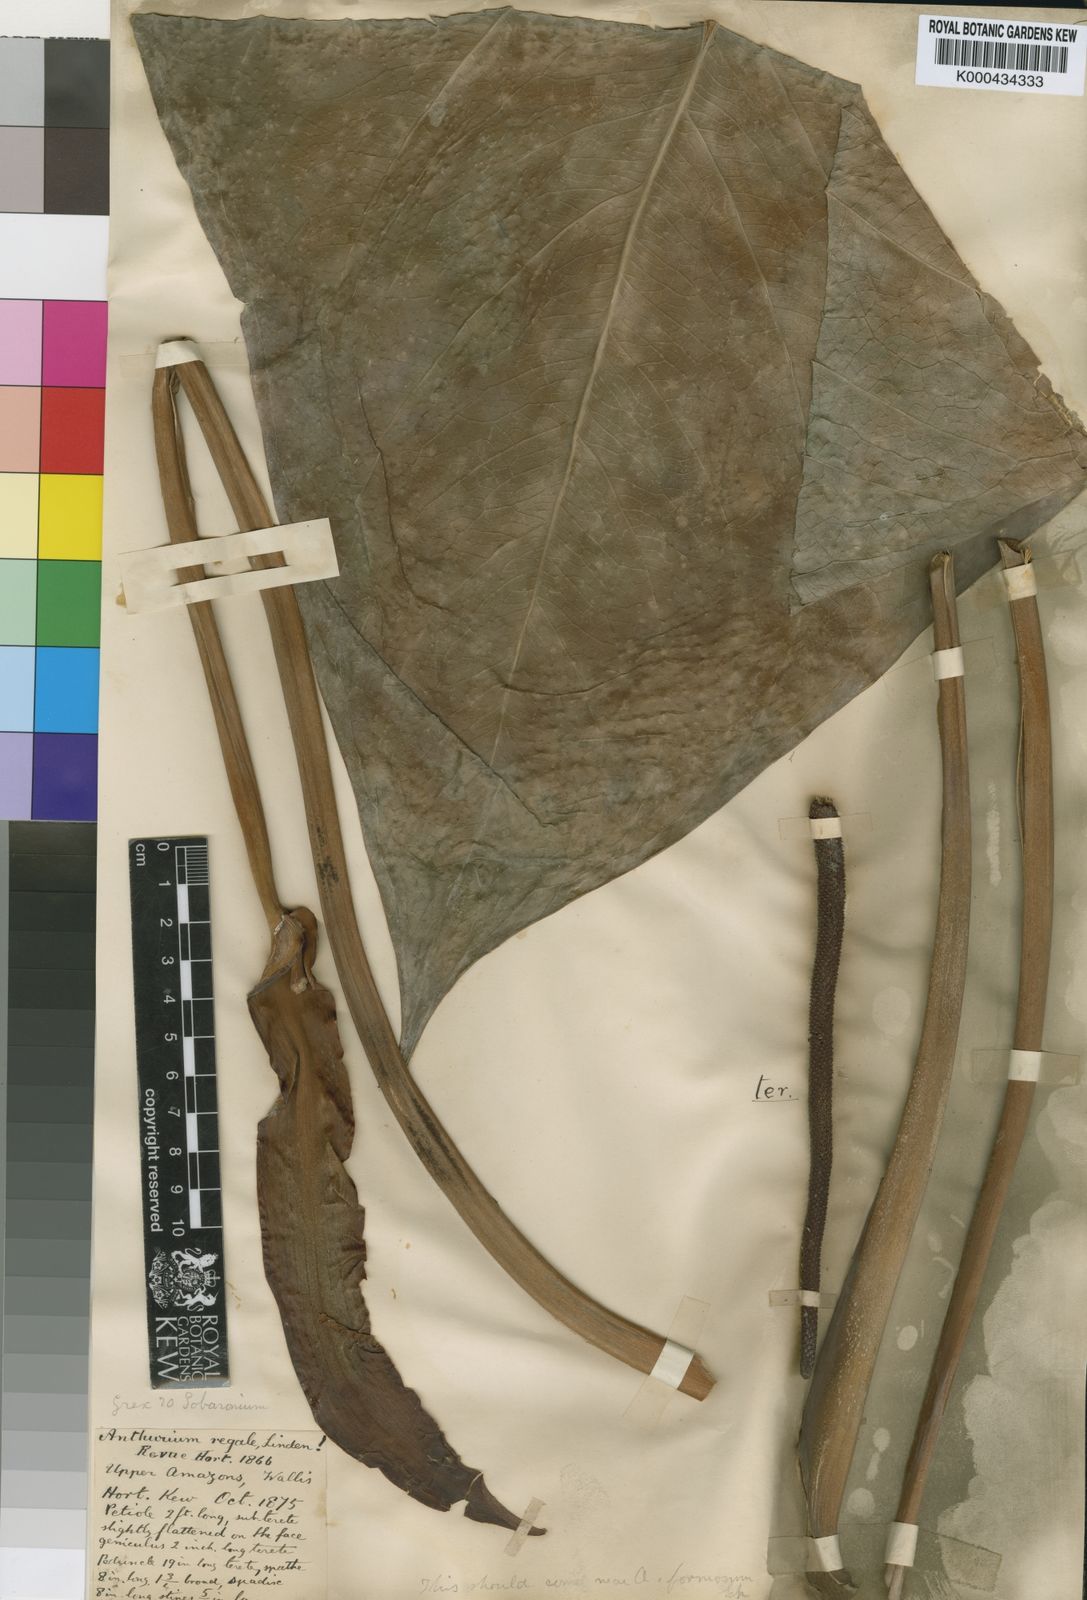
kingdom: Plantae
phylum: Tracheophyta
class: Liliopsida
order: Alismatales
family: Araceae
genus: Anthurium
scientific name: Anthurium regale
